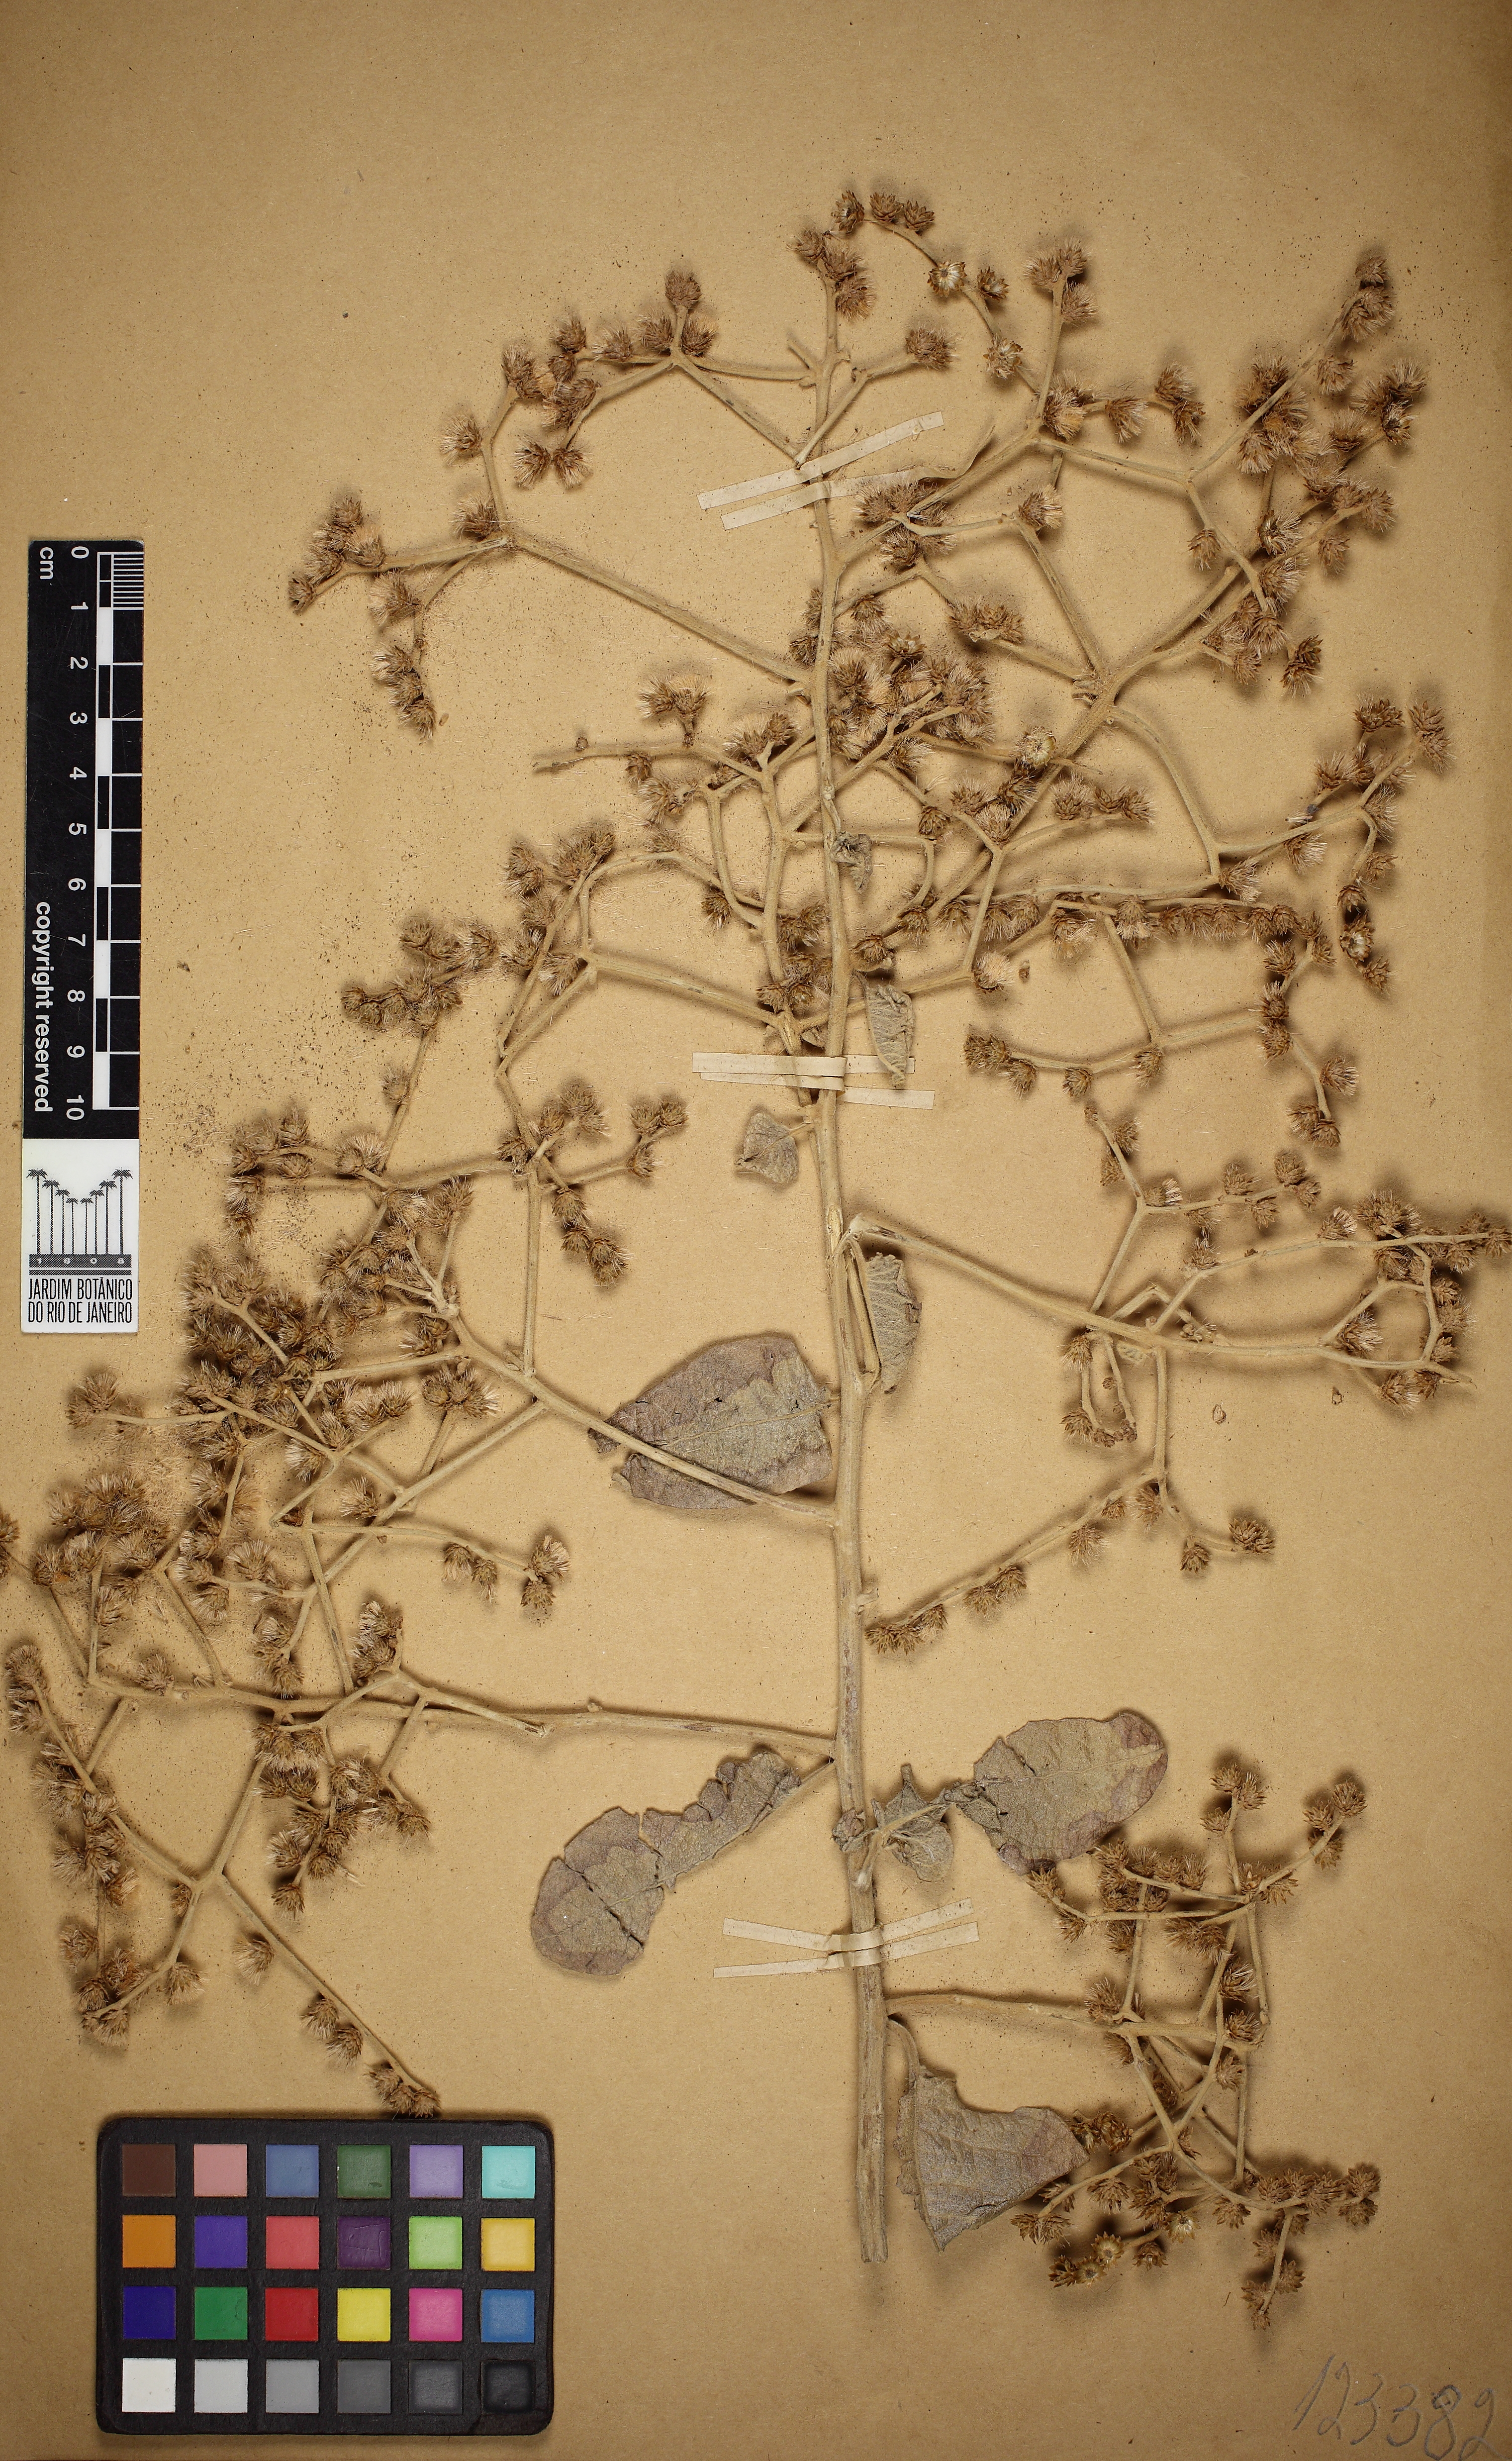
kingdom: Plantae
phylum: Tracheophyta
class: Magnoliopsida
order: Asterales
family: Asteraceae
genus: Vernonanthura
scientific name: Vernonanthura ferruginea
